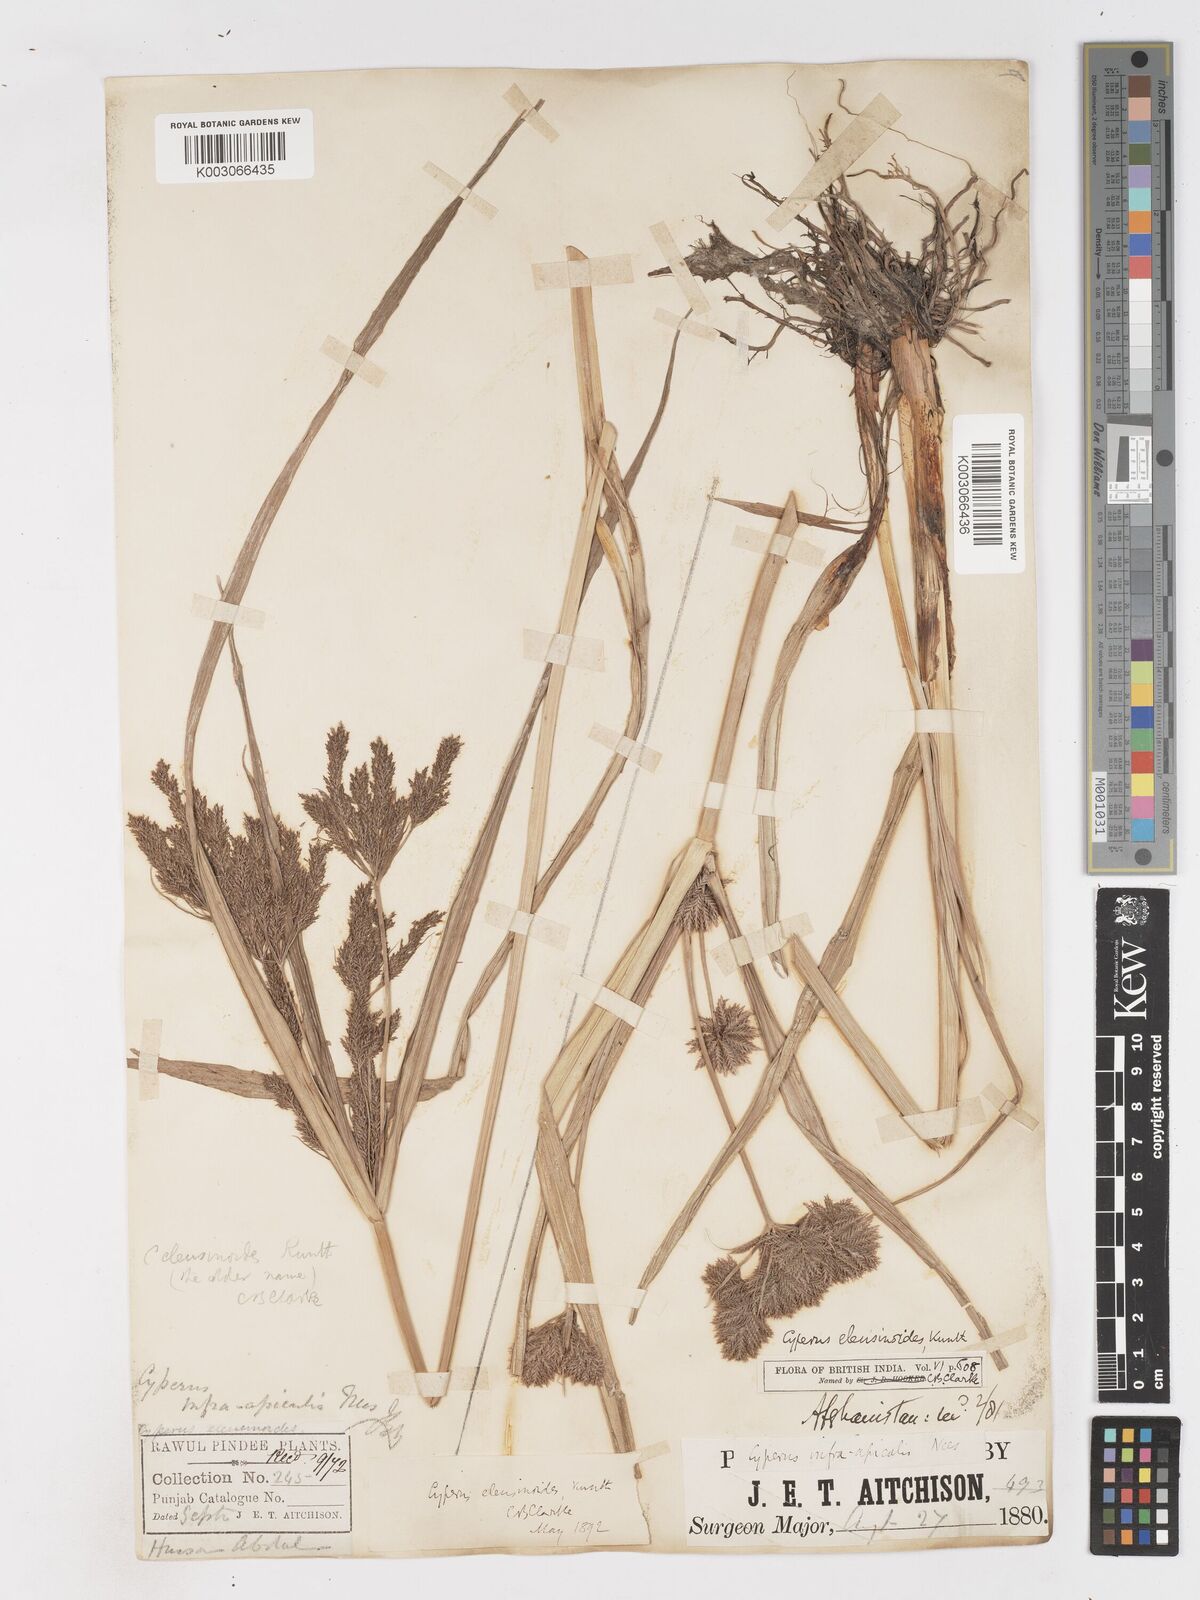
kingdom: Plantae
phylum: Tracheophyta
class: Liliopsida
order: Poales
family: Cyperaceae
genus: Cyperus
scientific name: Cyperus nutans
